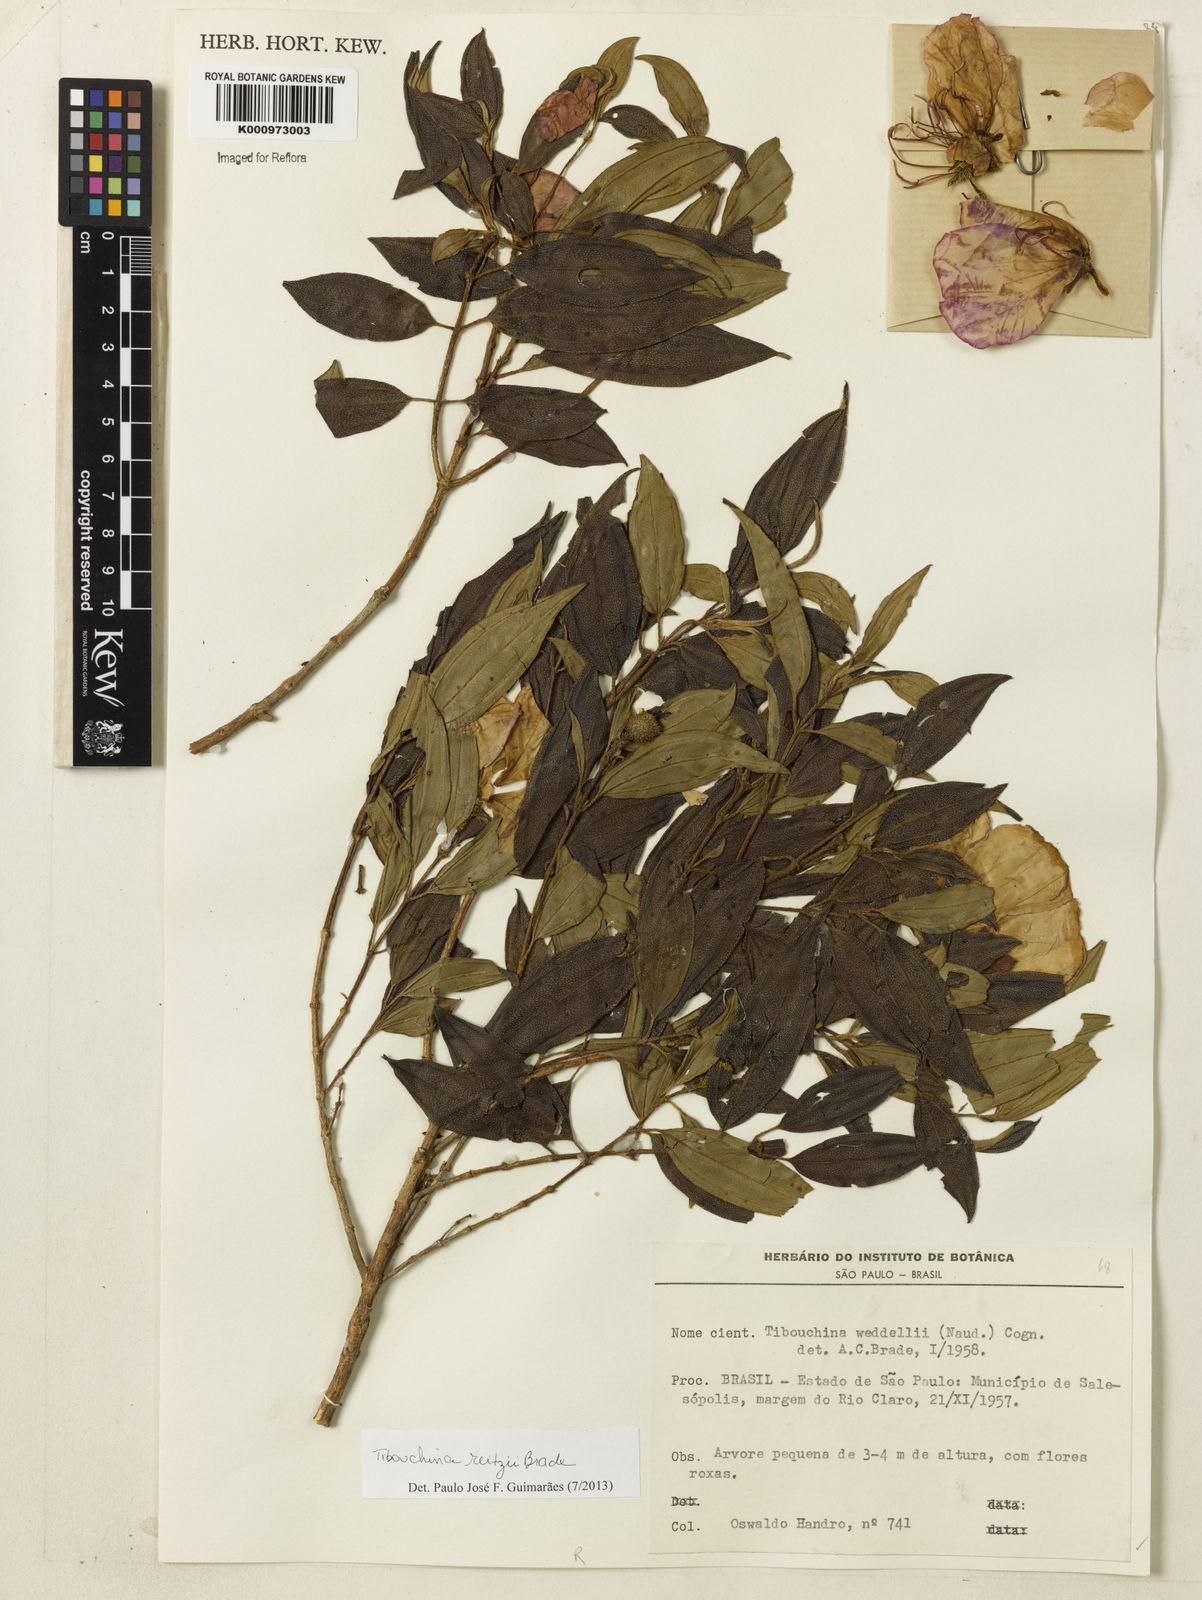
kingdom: Plantae
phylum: Tracheophyta
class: Magnoliopsida
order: Myrtales
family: Melastomataceae
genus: Pleroma
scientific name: Pleroma reitzii
